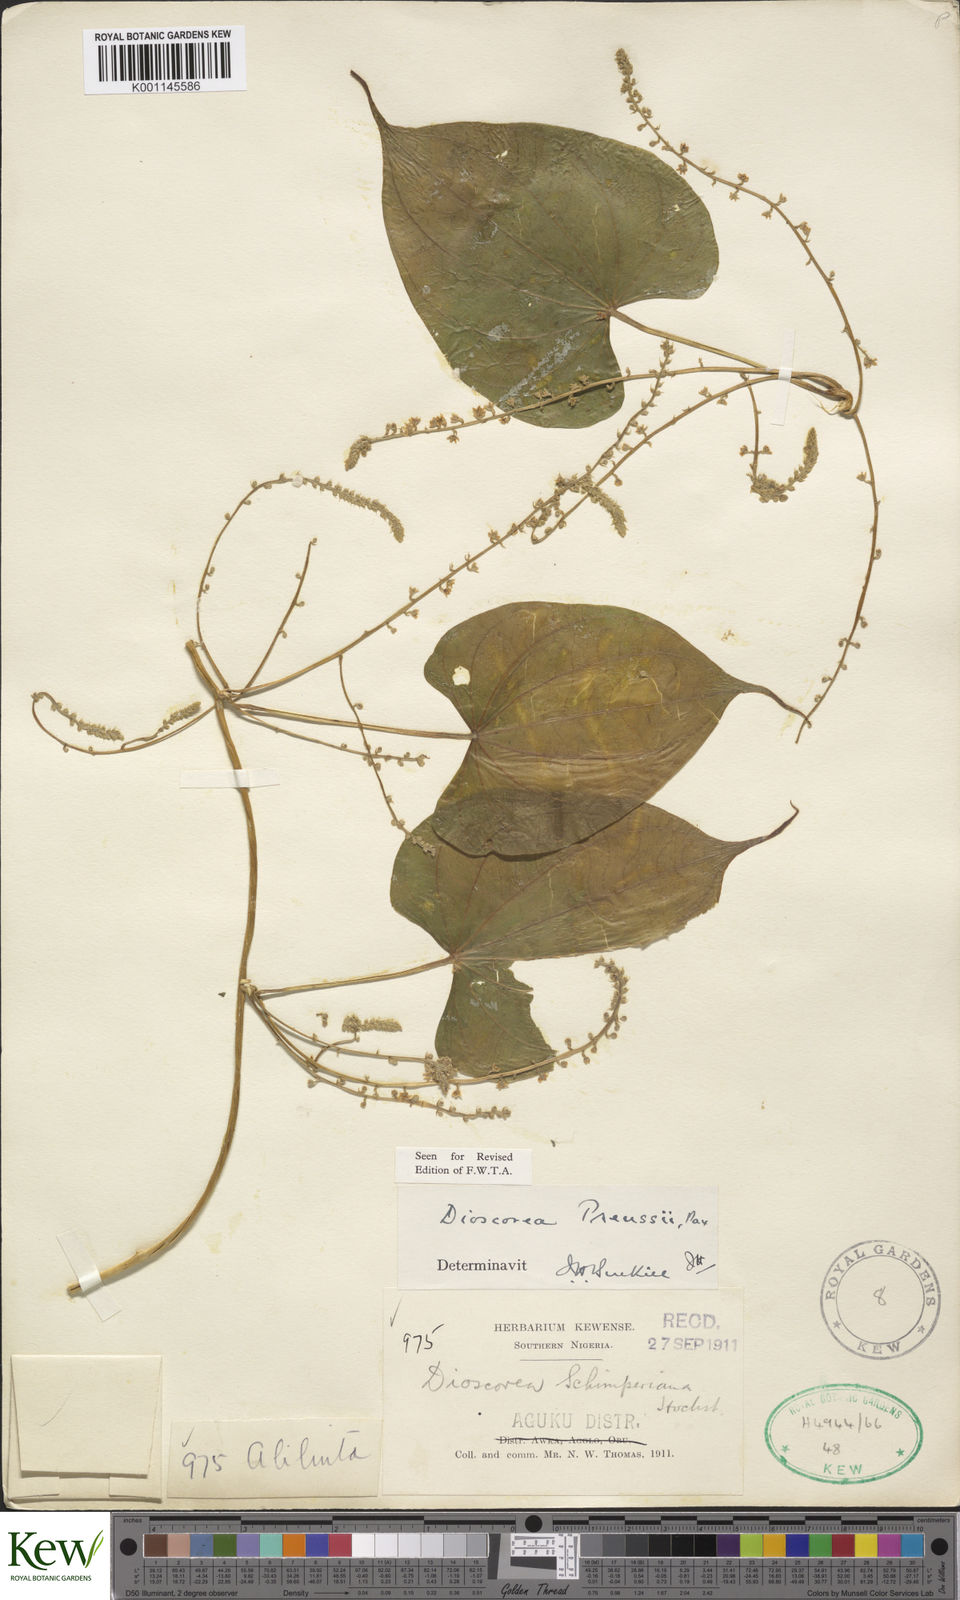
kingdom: Plantae
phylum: Tracheophyta
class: Liliopsida
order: Dioscoreales
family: Dioscoreaceae
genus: Dioscorea
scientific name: Dioscorea preussii
